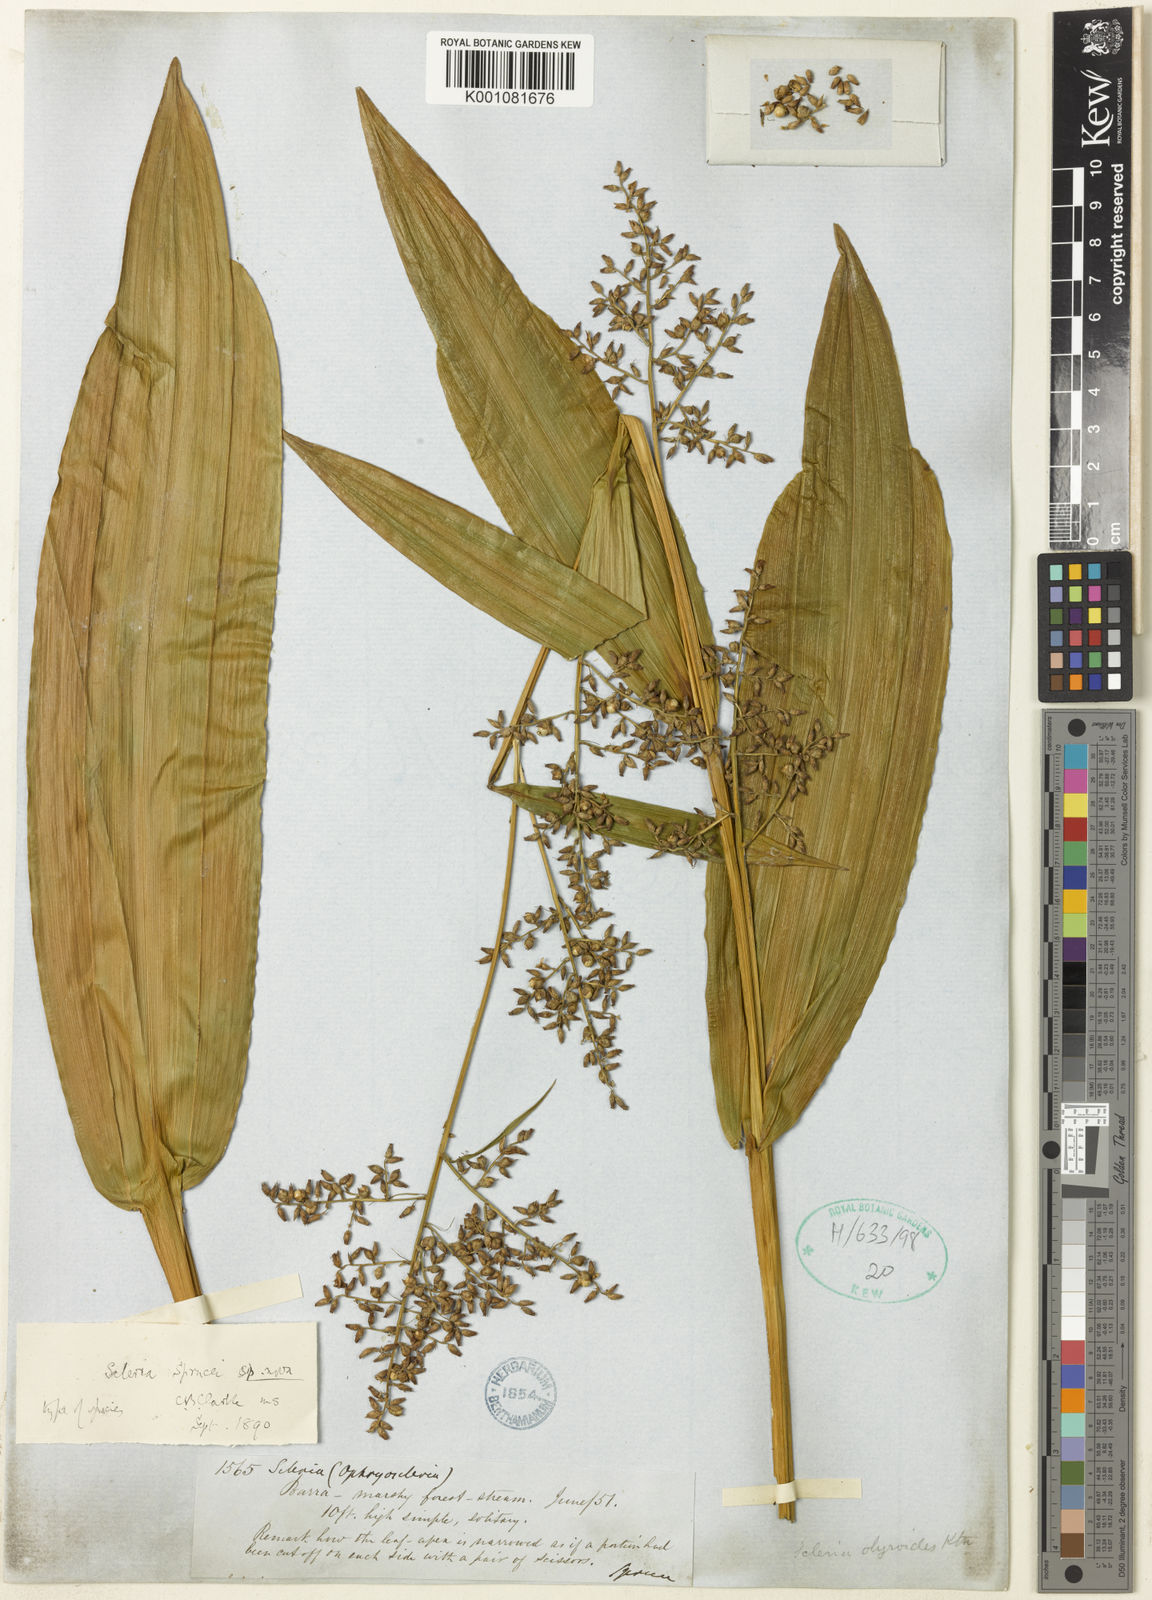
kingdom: Plantae
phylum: Tracheophyta
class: Liliopsida
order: Poales
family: Cyperaceae
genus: Scleria
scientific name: Scleria sprucei
